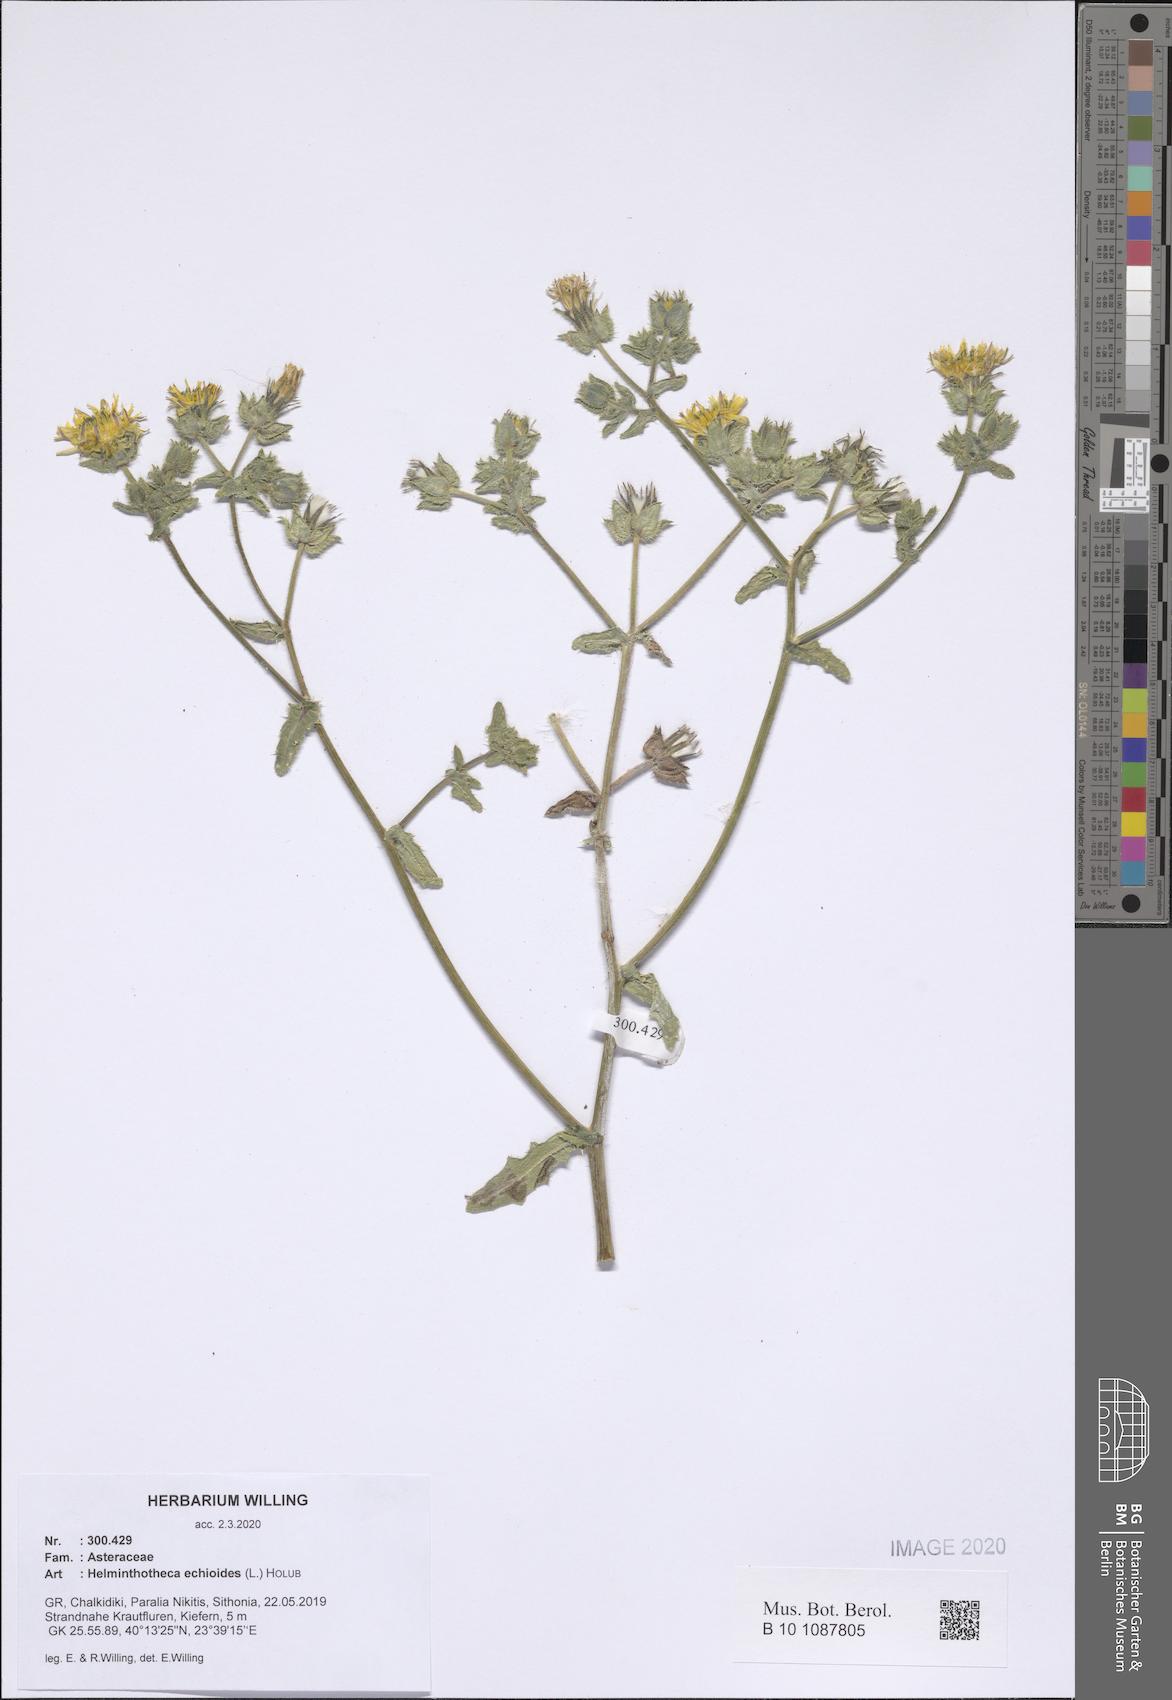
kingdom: Plantae
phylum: Tracheophyta
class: Magnoliopsida
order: Asterales
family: Asteraceae
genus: Helminthotheca
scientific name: Helminthotheca echioides
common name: Ox-tongue
